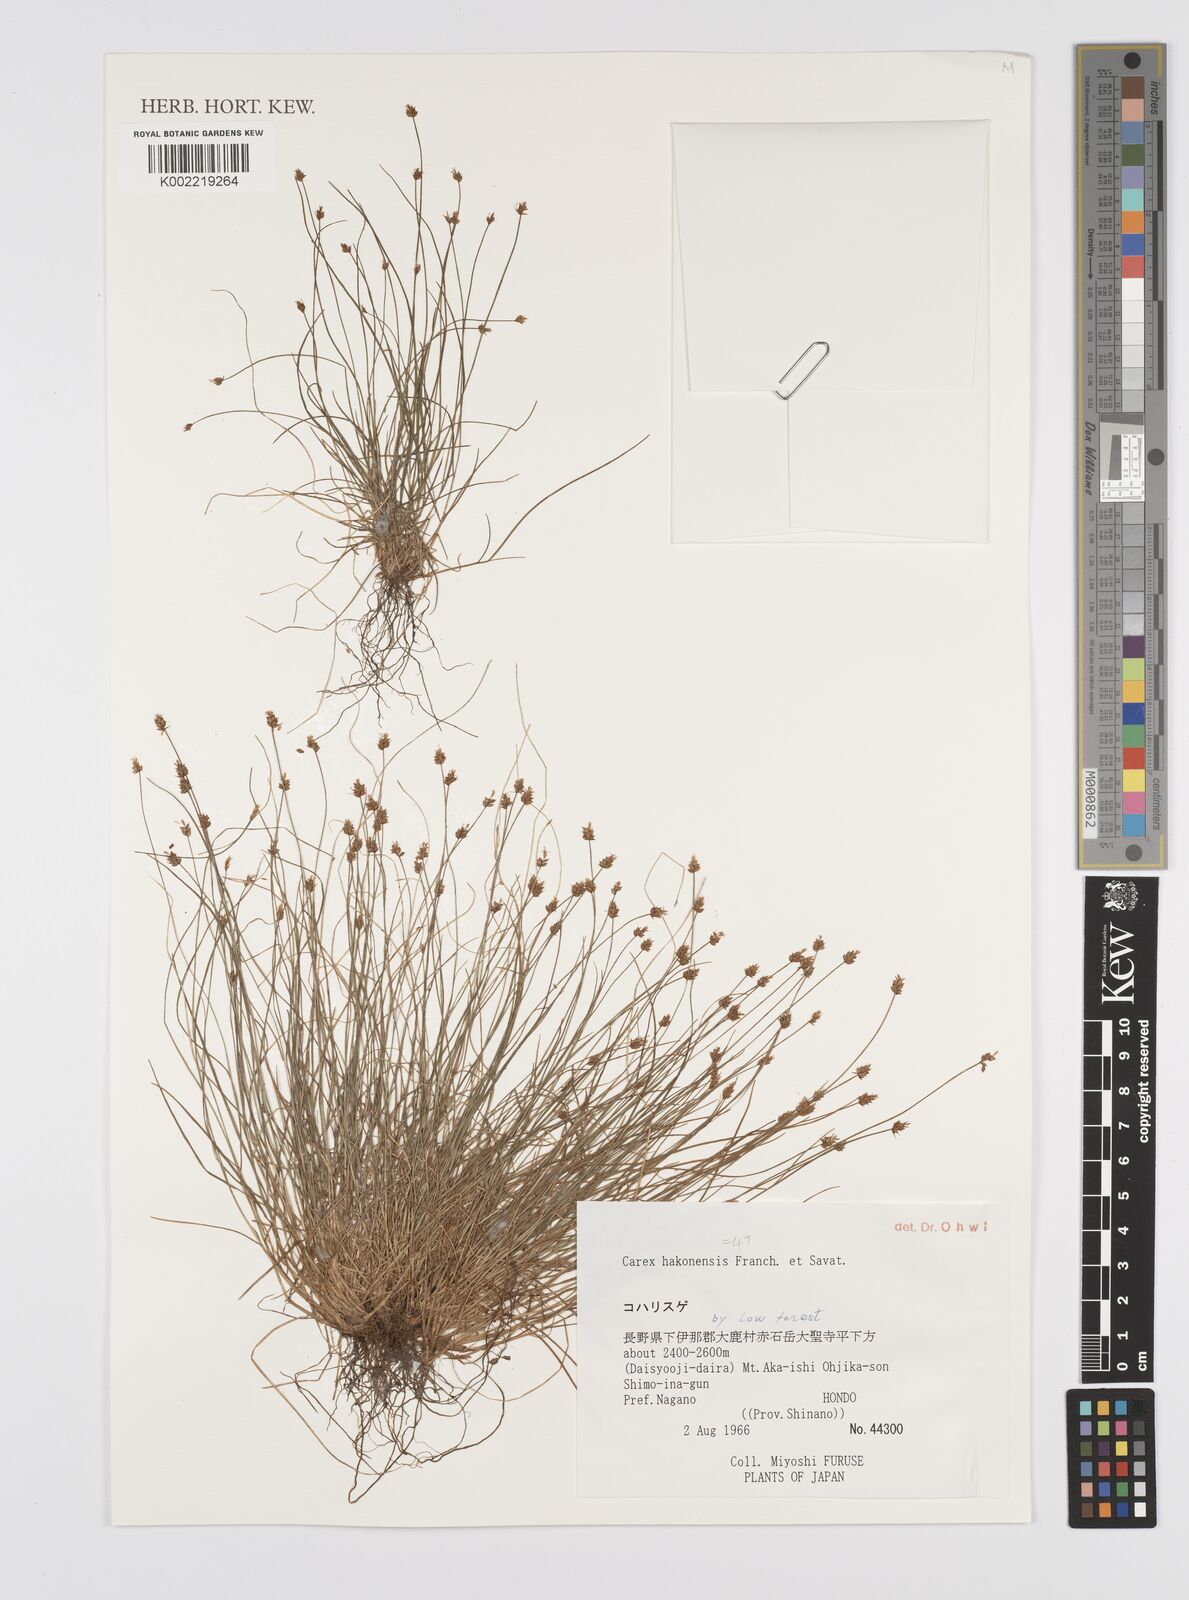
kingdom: Plantae
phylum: Tracheophyta
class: Liliopsida
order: Poales
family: Cyperaceae
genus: Carex
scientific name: Carex onoei
